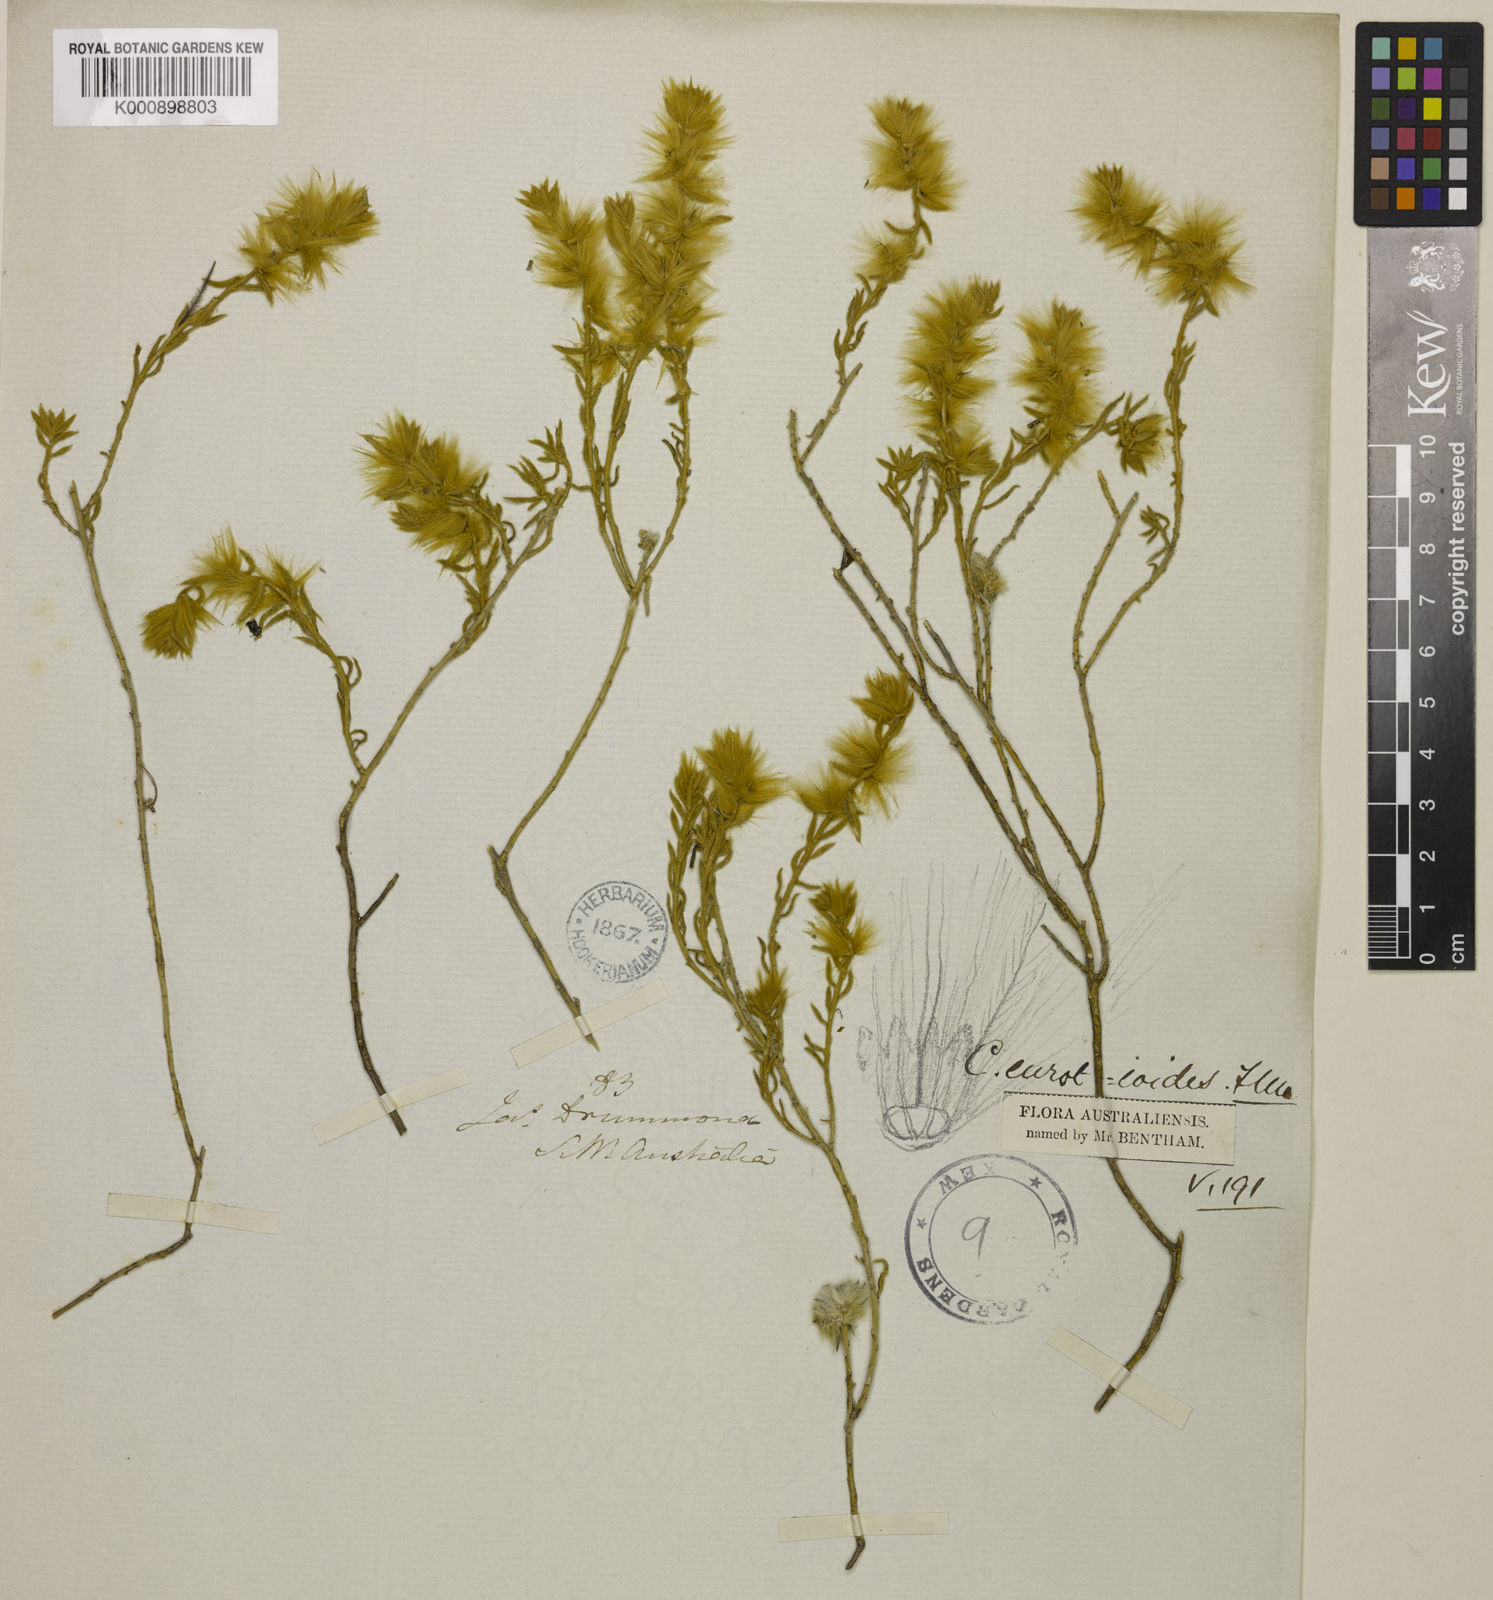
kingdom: Plantae
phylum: Tracheophyta
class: Magnoliopsida
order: Caryophyllales
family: Amaranthaceae
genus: Sclerolaena
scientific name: Sclerolaena eurotioides
